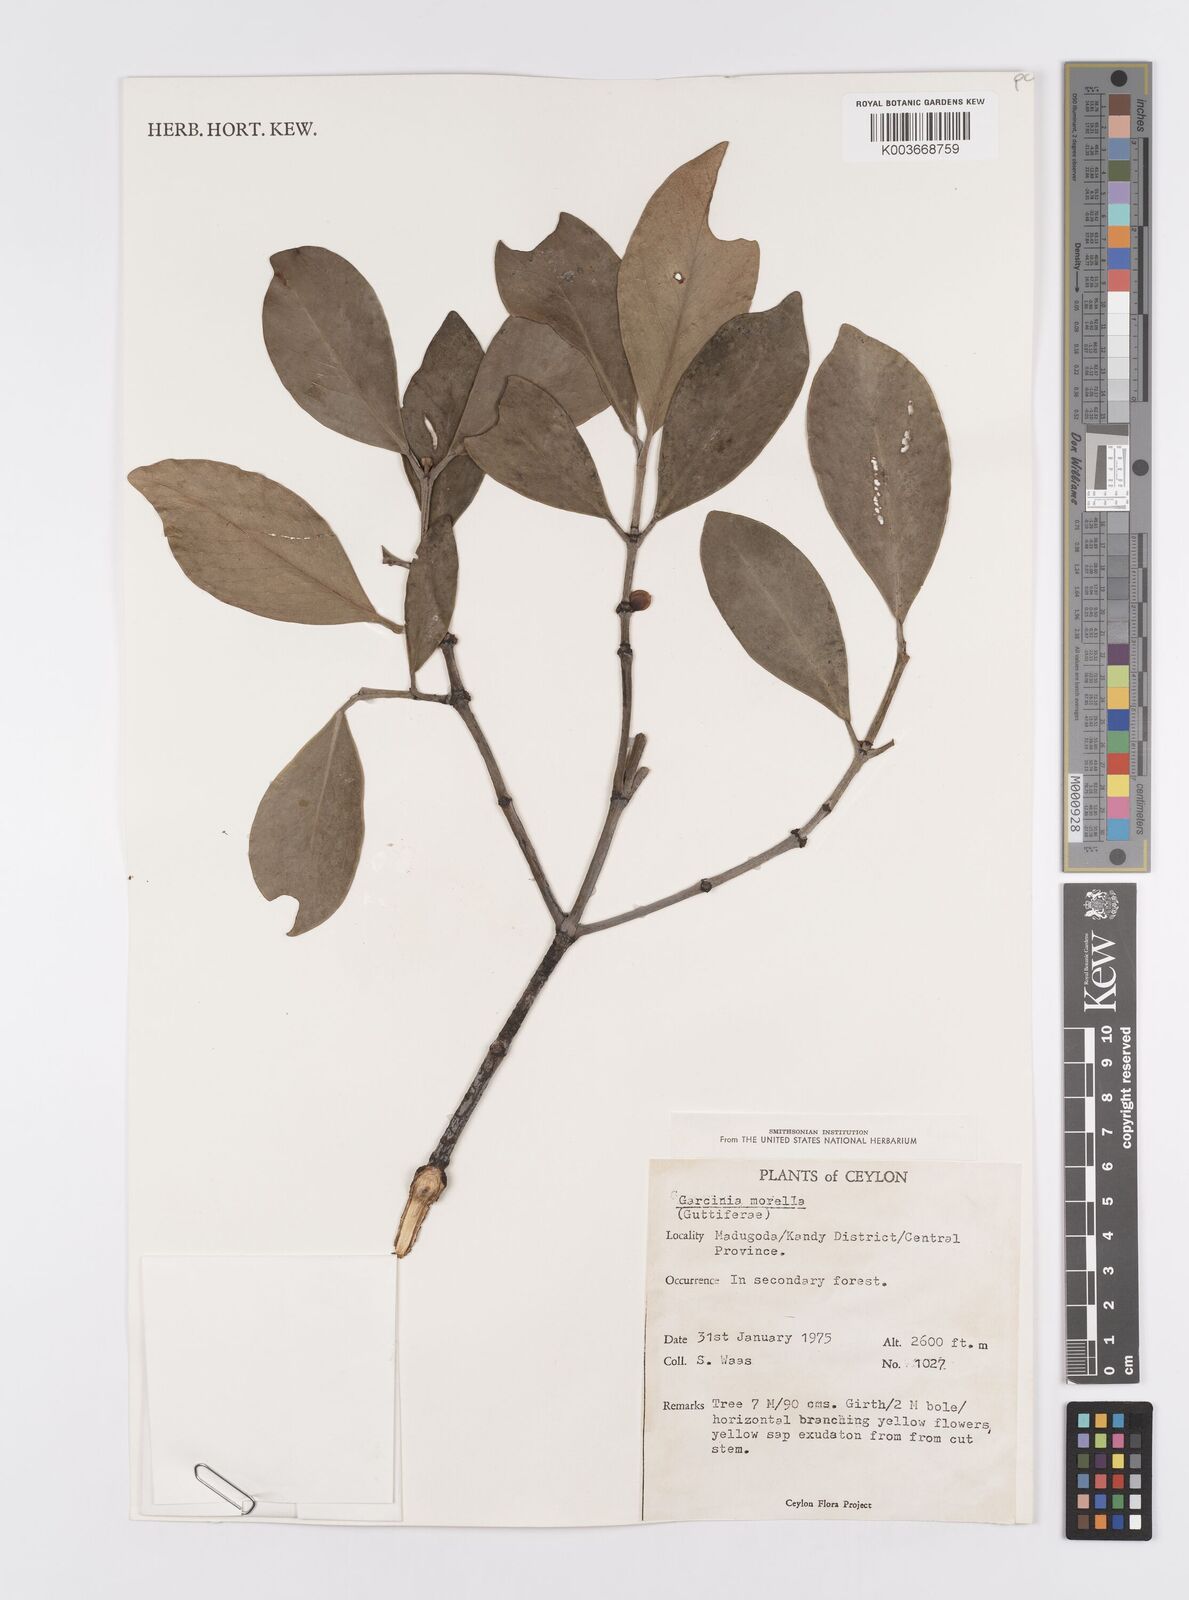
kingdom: Plantae
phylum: Tracheophyta
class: Magnoliopsida
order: Malpighiales
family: Clusiaceae
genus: Garcinia
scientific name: Garcinia morella
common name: Indian gamboge-tree
